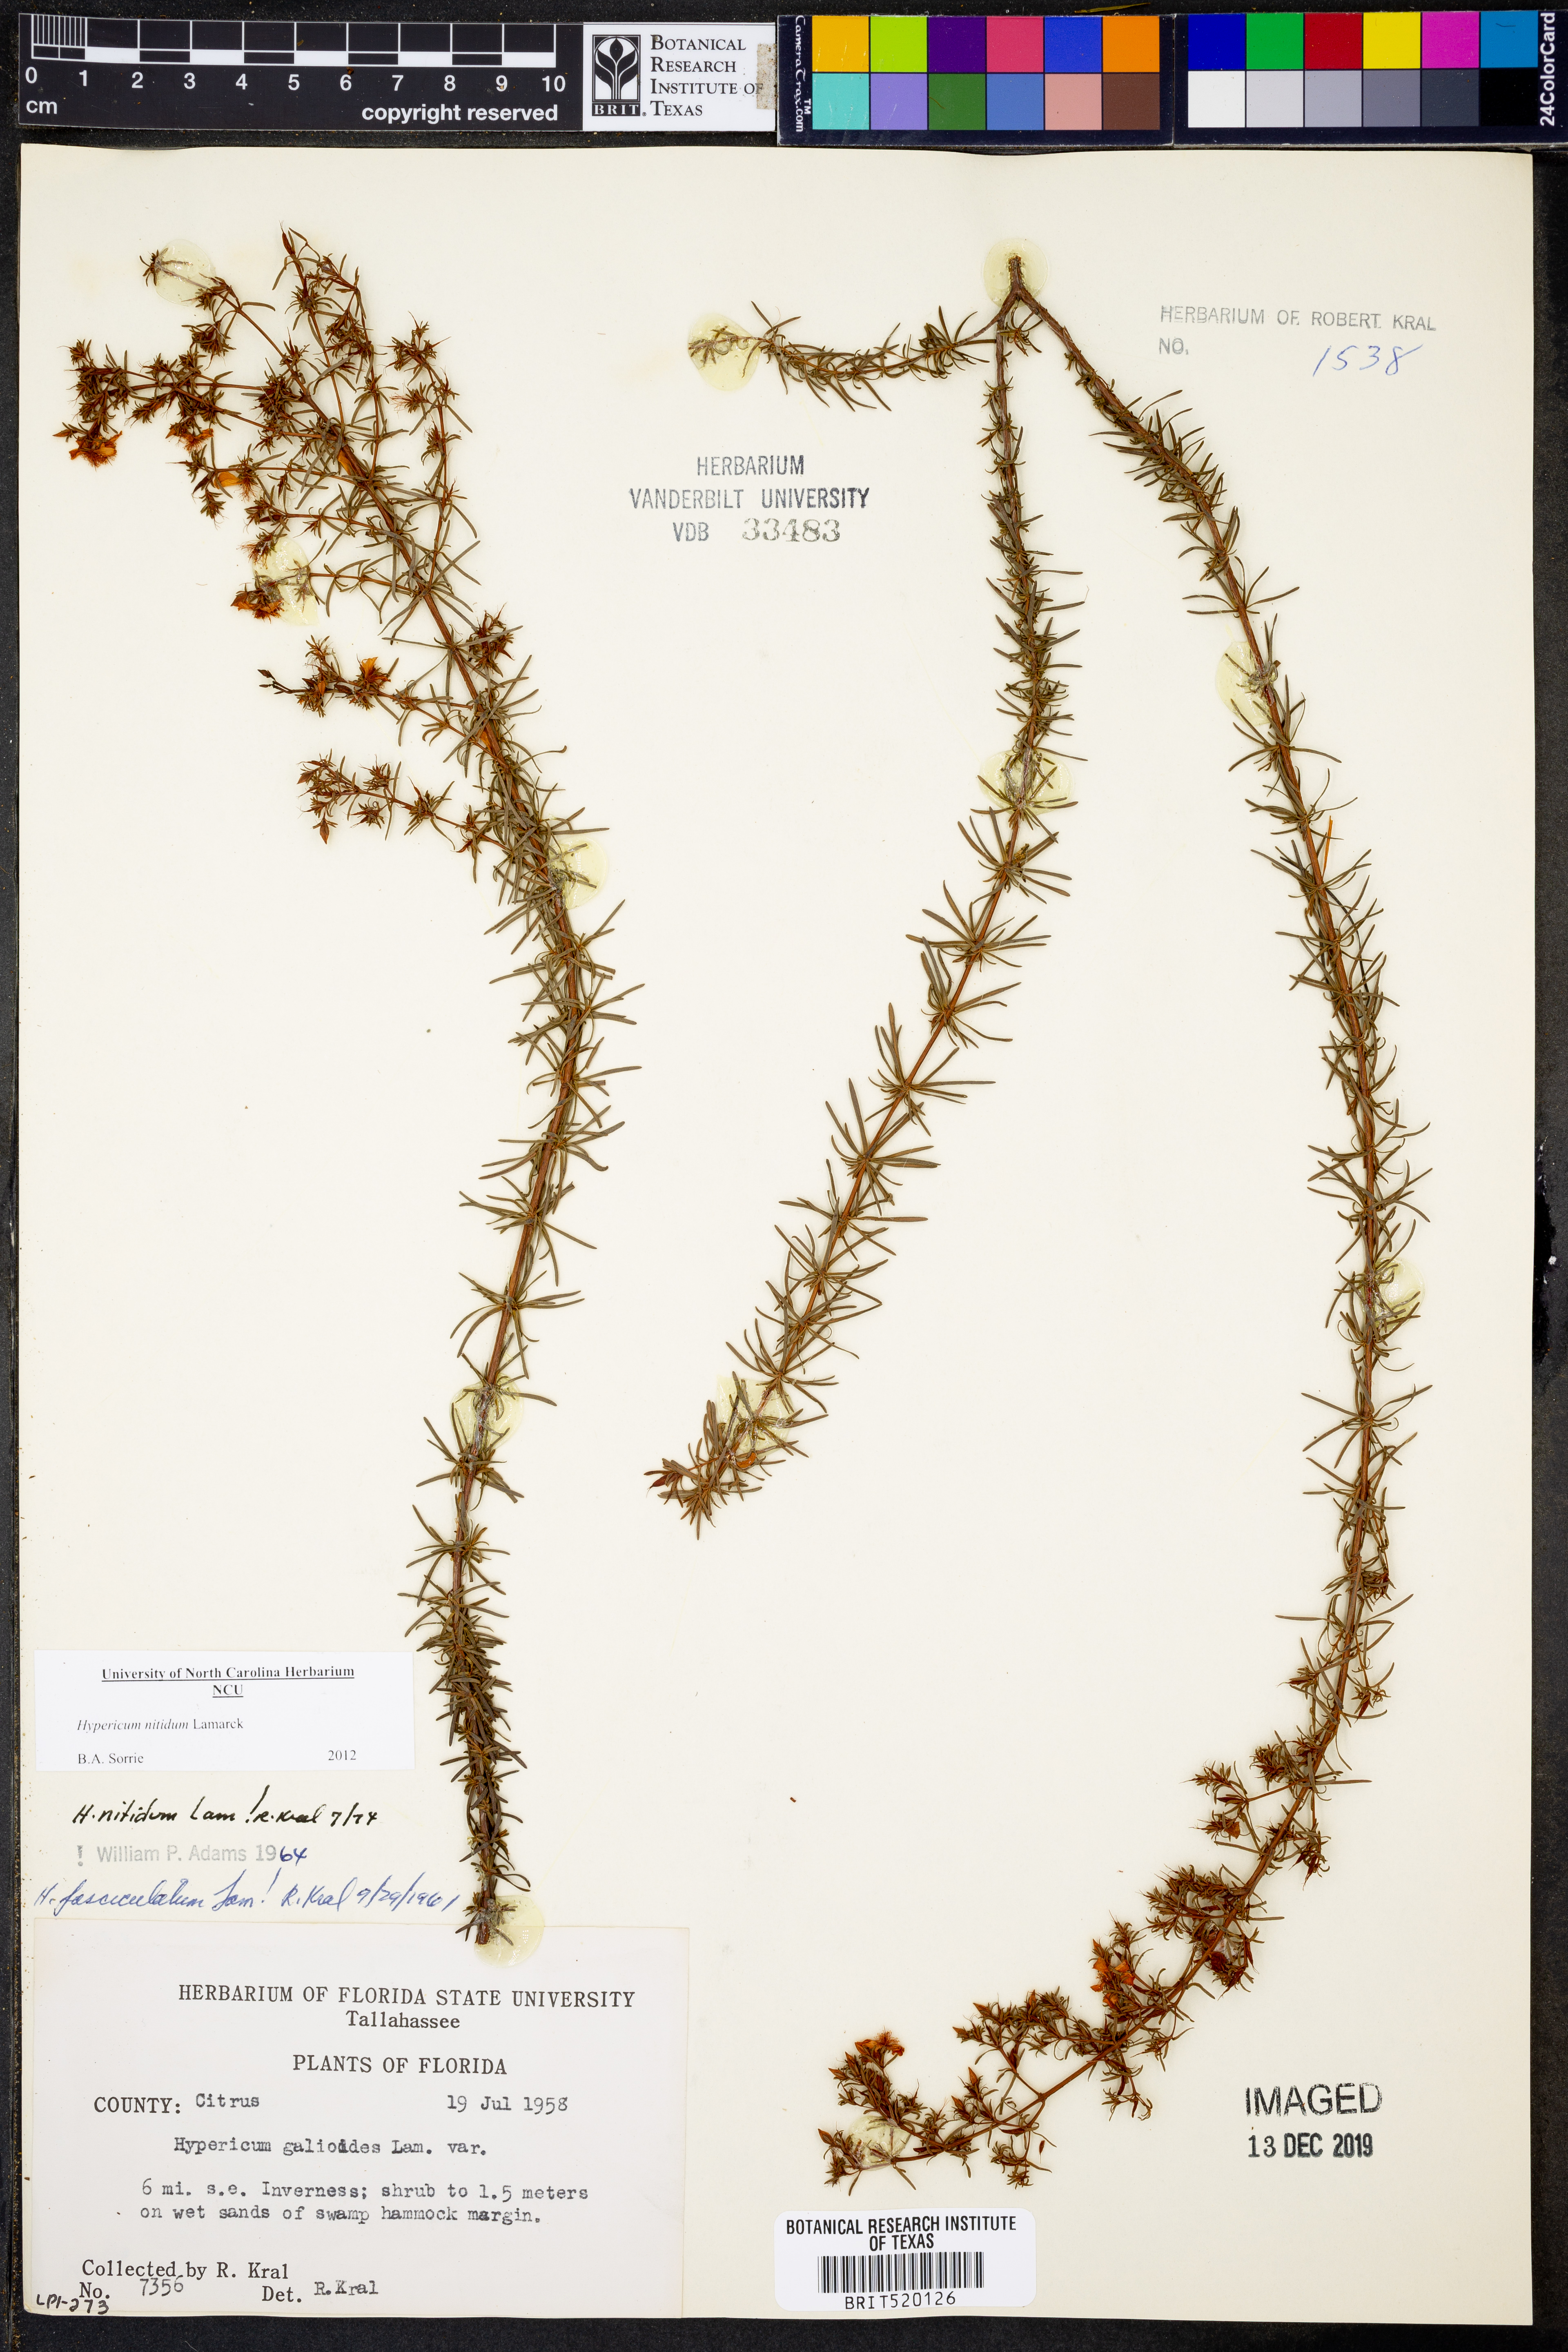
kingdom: Plantae
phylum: Tracheophyta
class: Magnoliopsida
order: Malpighiales
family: Hypericaceae
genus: Hypericum
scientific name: Hypericum nitidum
